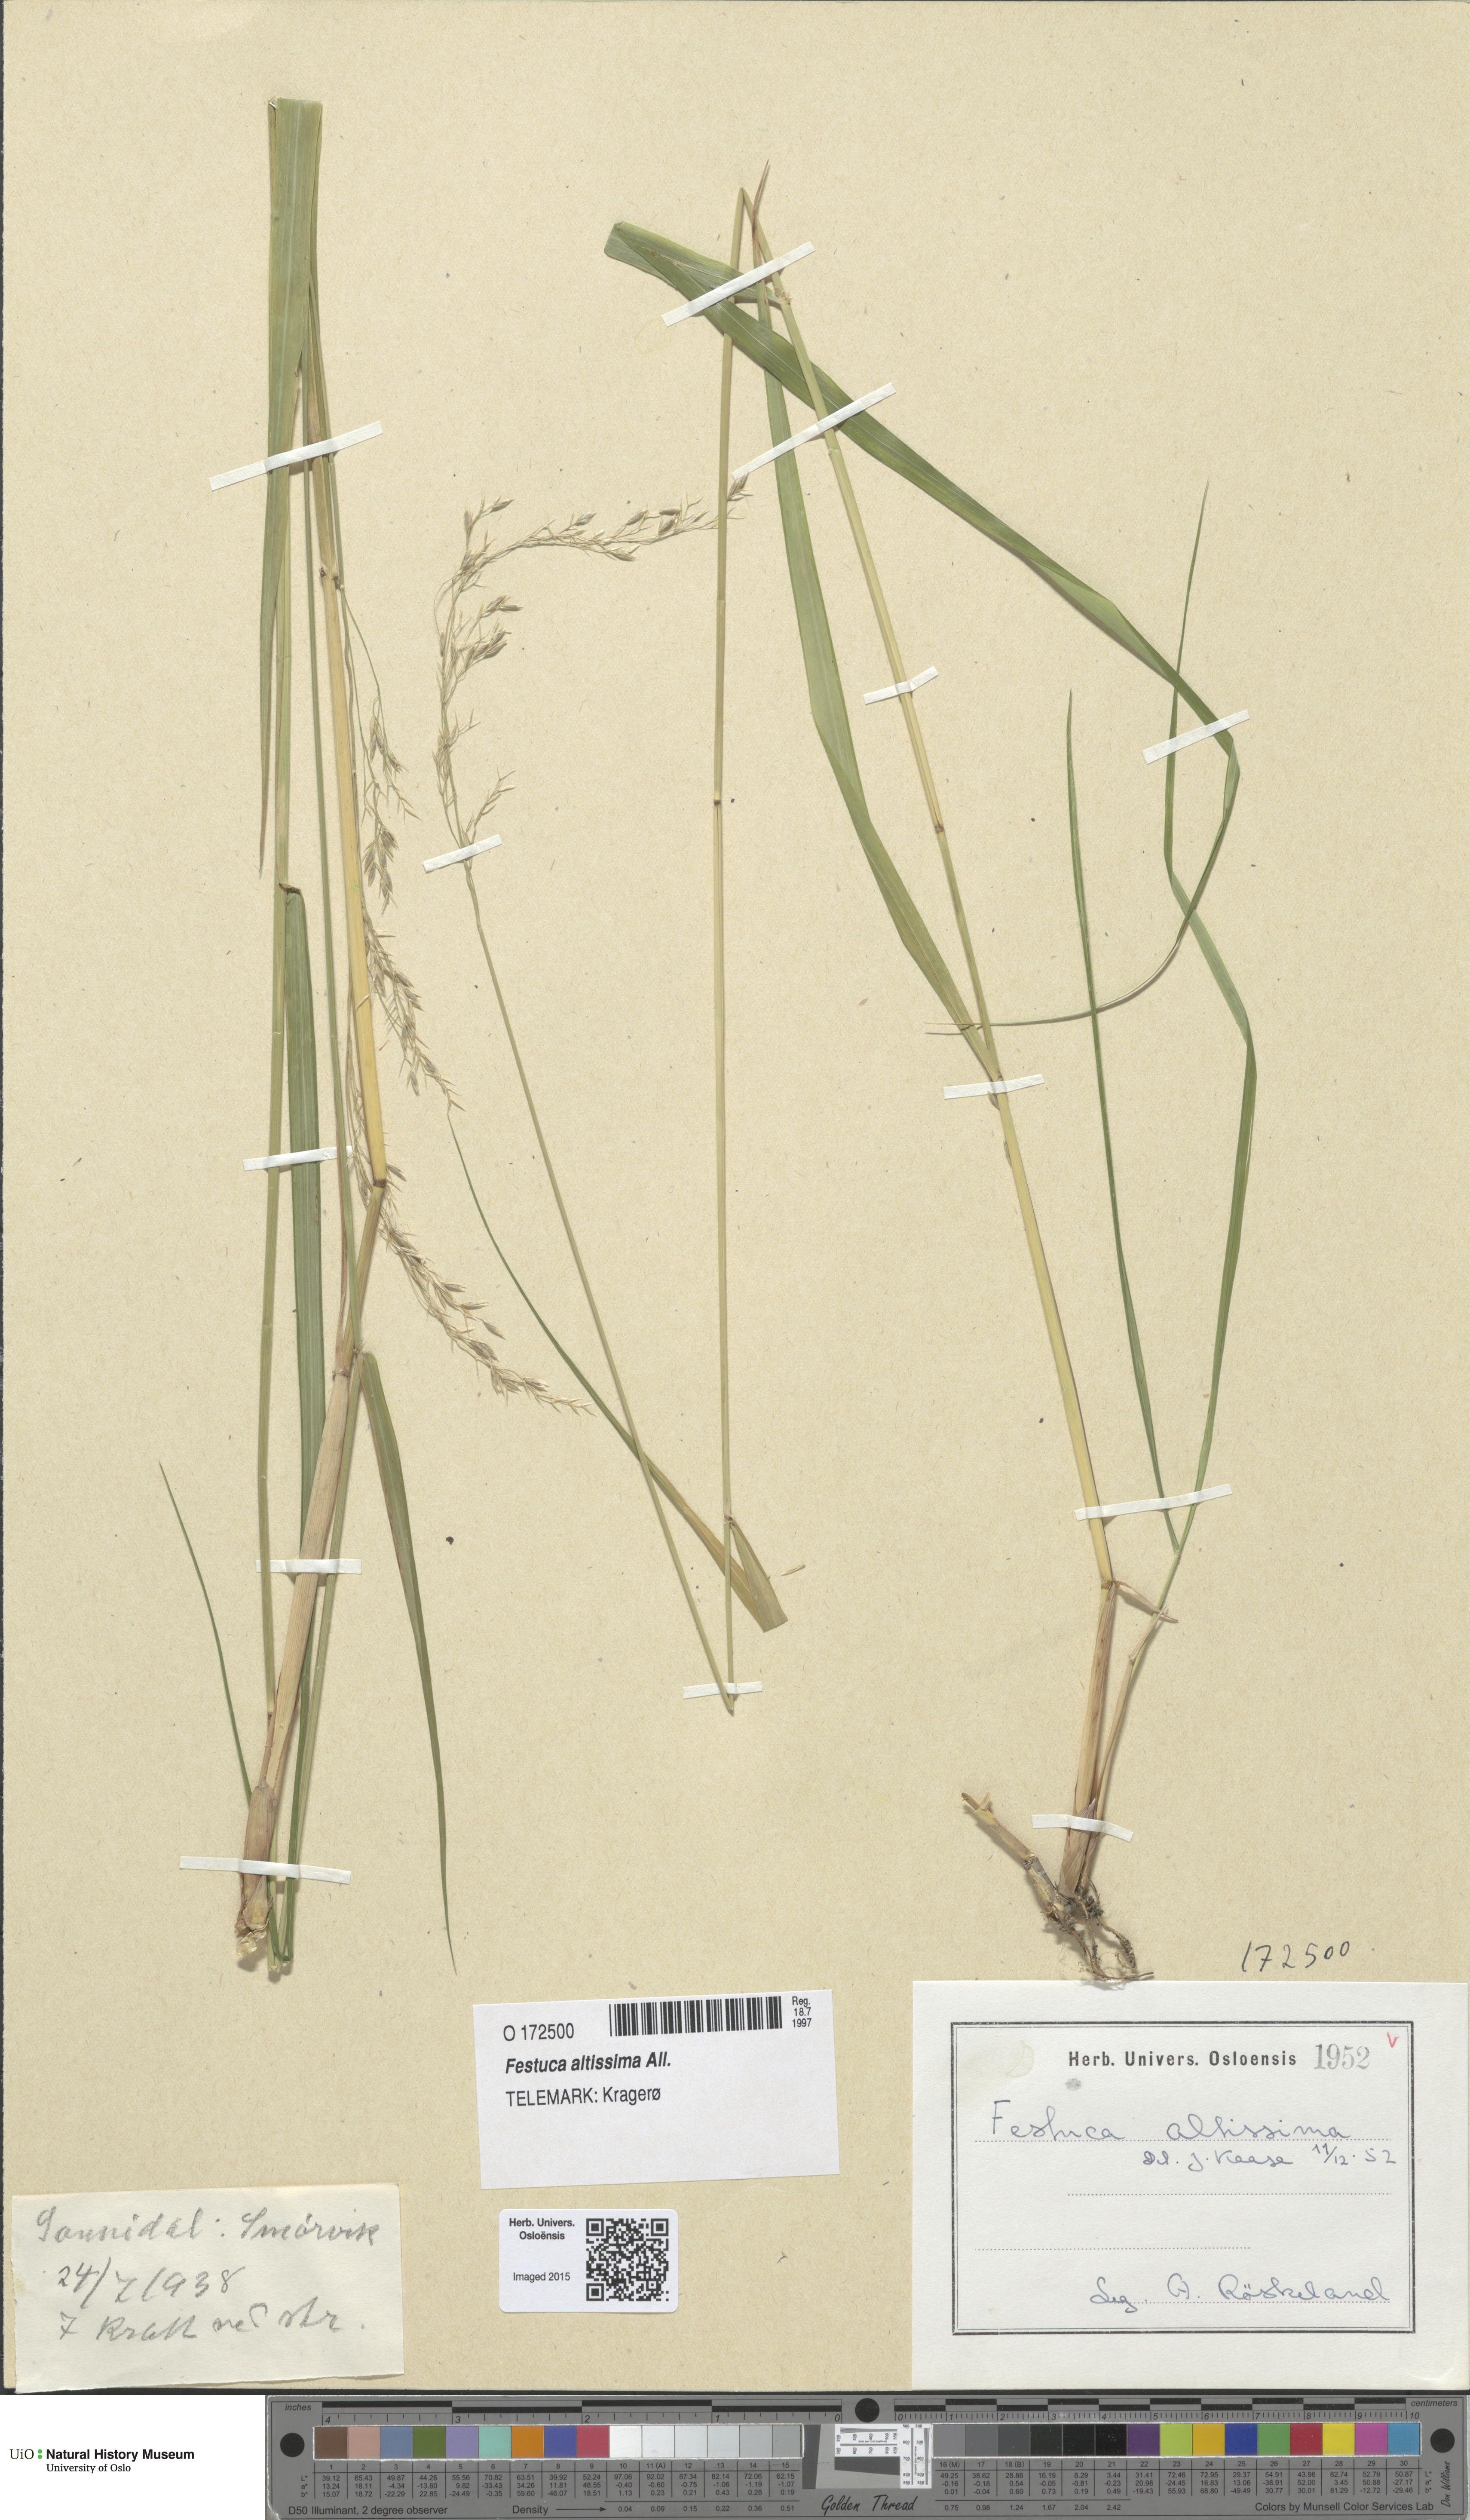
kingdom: Plantae
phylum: Tracheophyta
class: Liliopsida
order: Poales
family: Poaceae
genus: Festuca
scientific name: Festuca altissima
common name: Wood fescue
